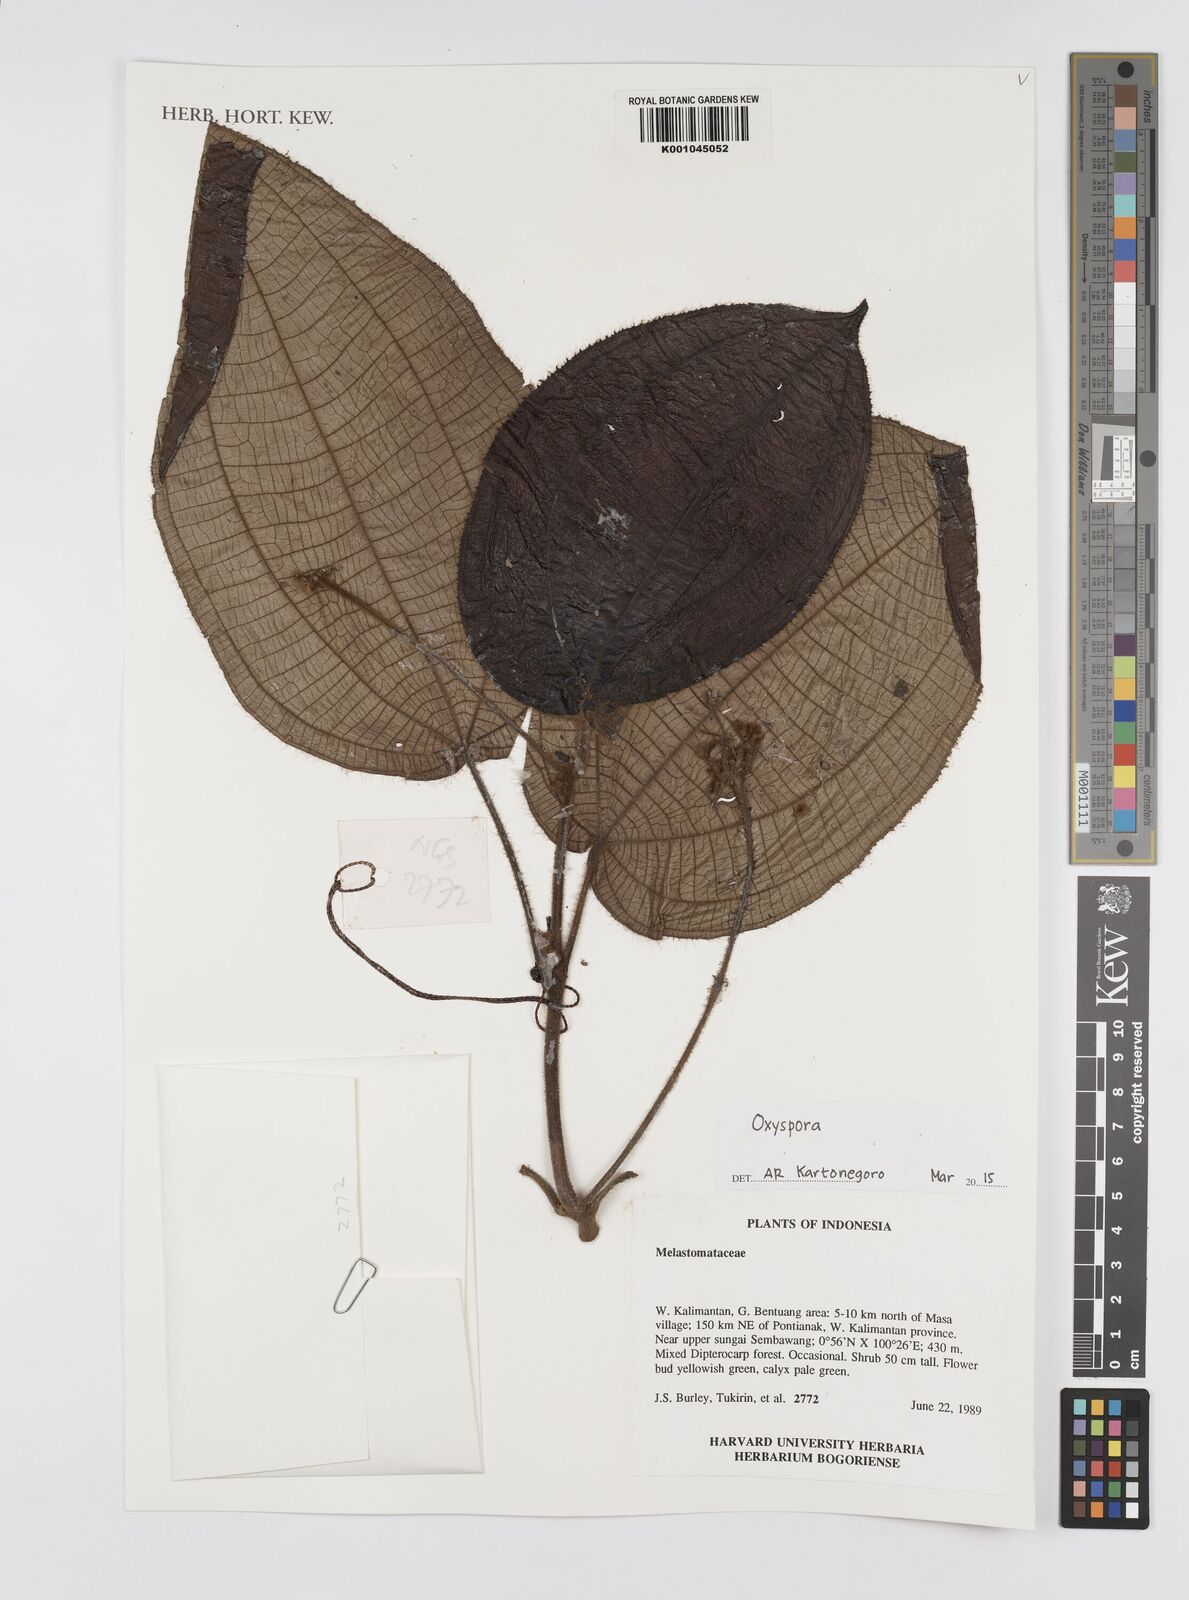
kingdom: Plantae
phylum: Tracheophyta
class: Magnoliopsida
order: Myrtales
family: Melastomataceae
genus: Oxyspora
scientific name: Oxyspora
